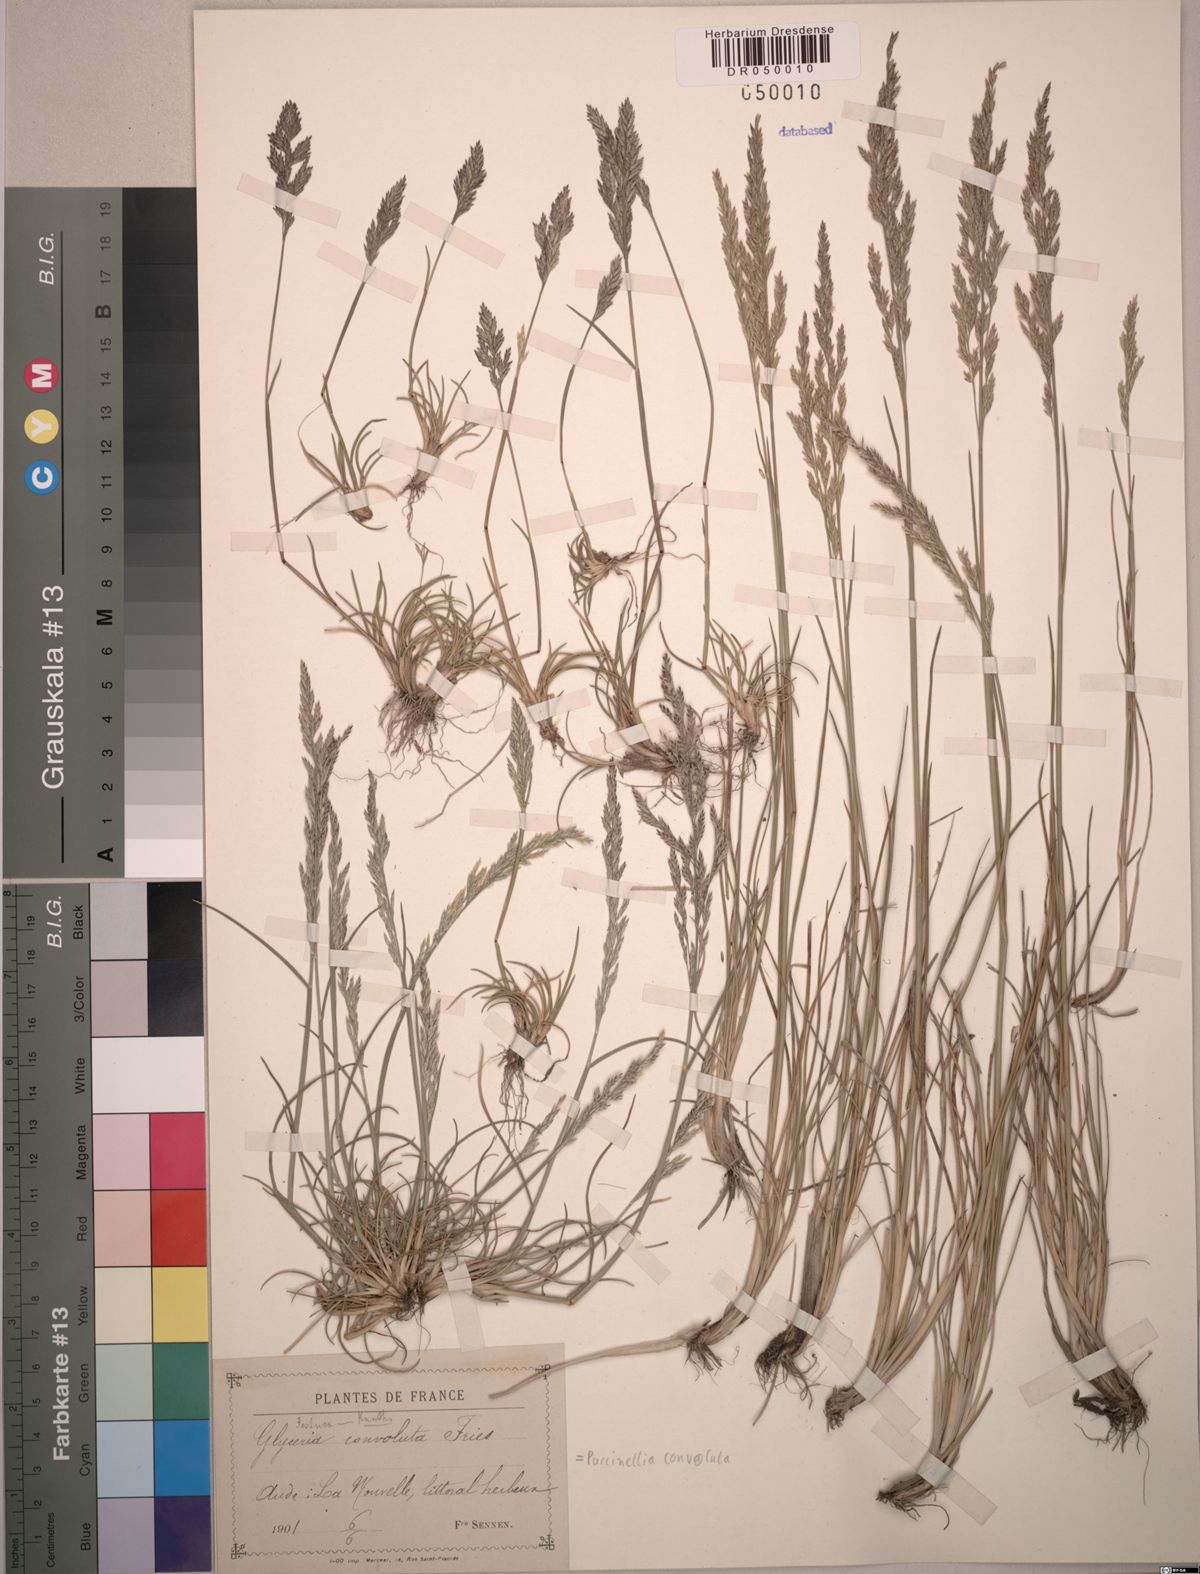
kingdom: Plantae
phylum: Tracheophyta
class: Liliopsida
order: Poales
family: Poaceae
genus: Puccinellia
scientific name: Puccinellia convoluta
